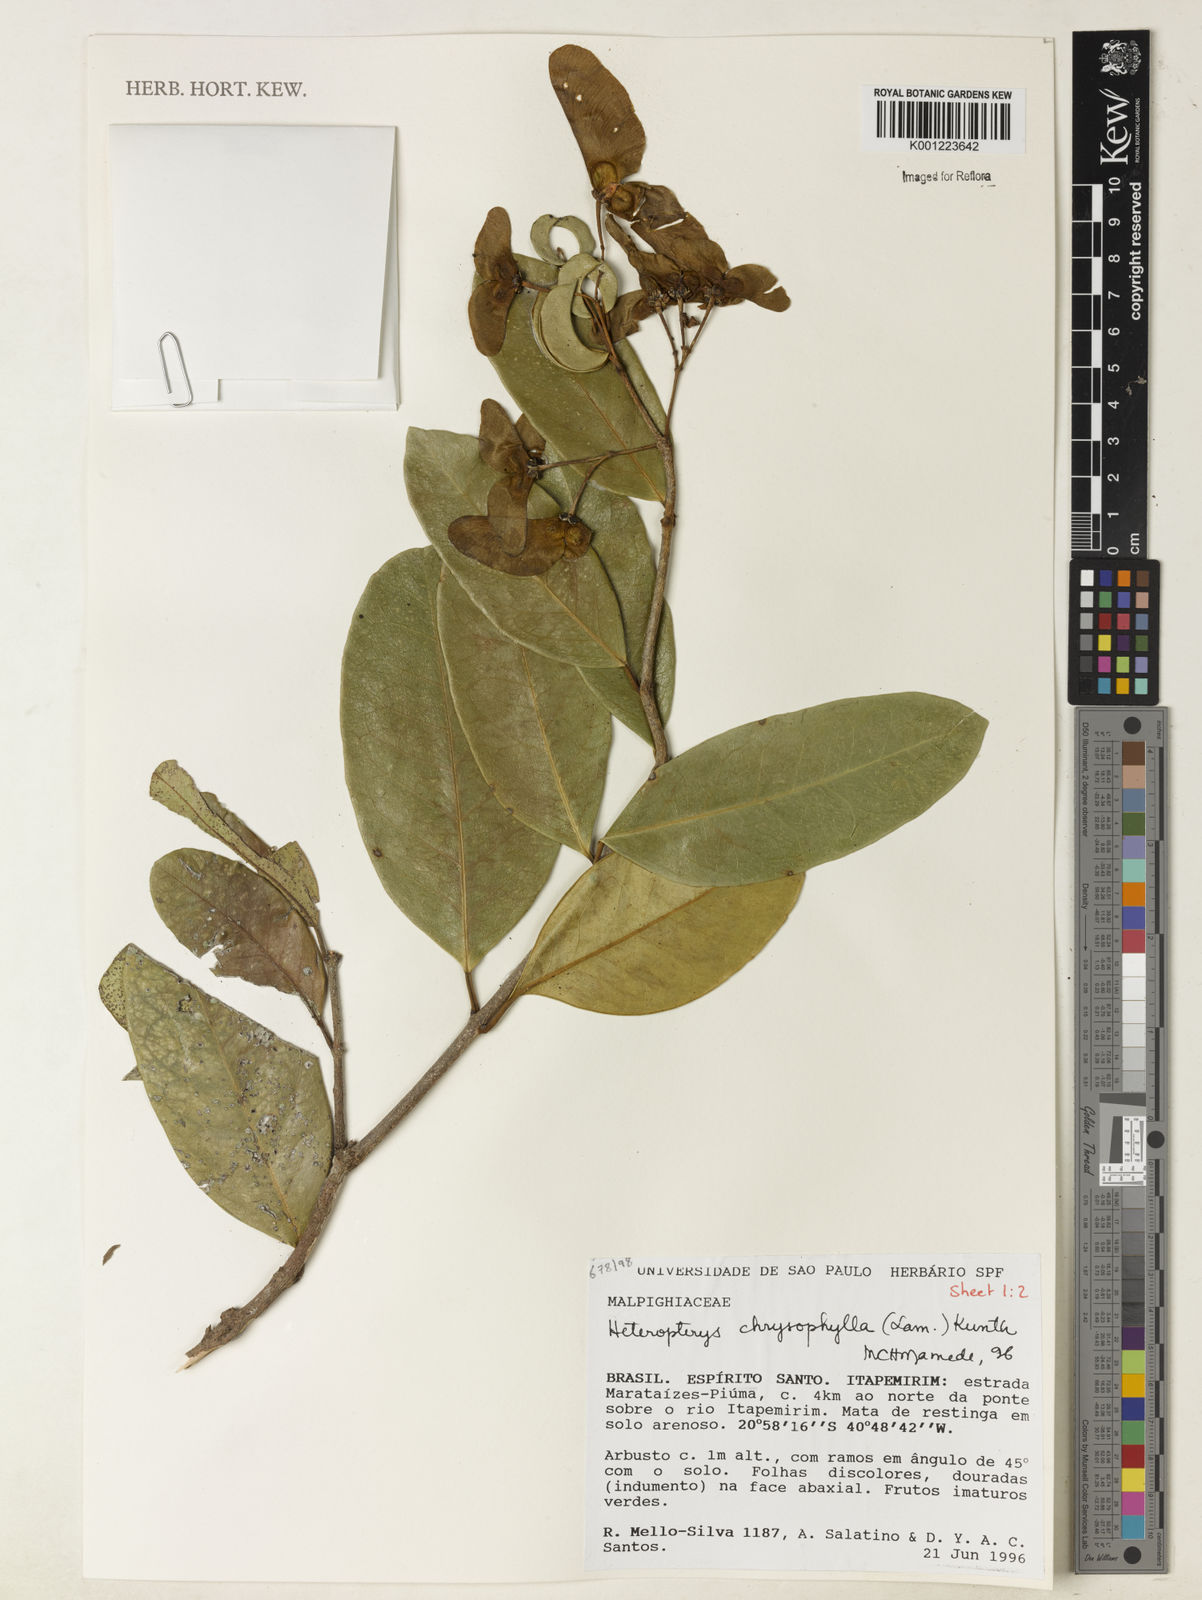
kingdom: Plantae
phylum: Tracheophyta
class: Magnoliopsida
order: Malpighiales
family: Malpighiaceae
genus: Heteropterys
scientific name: Heteropterys chrysophylla
